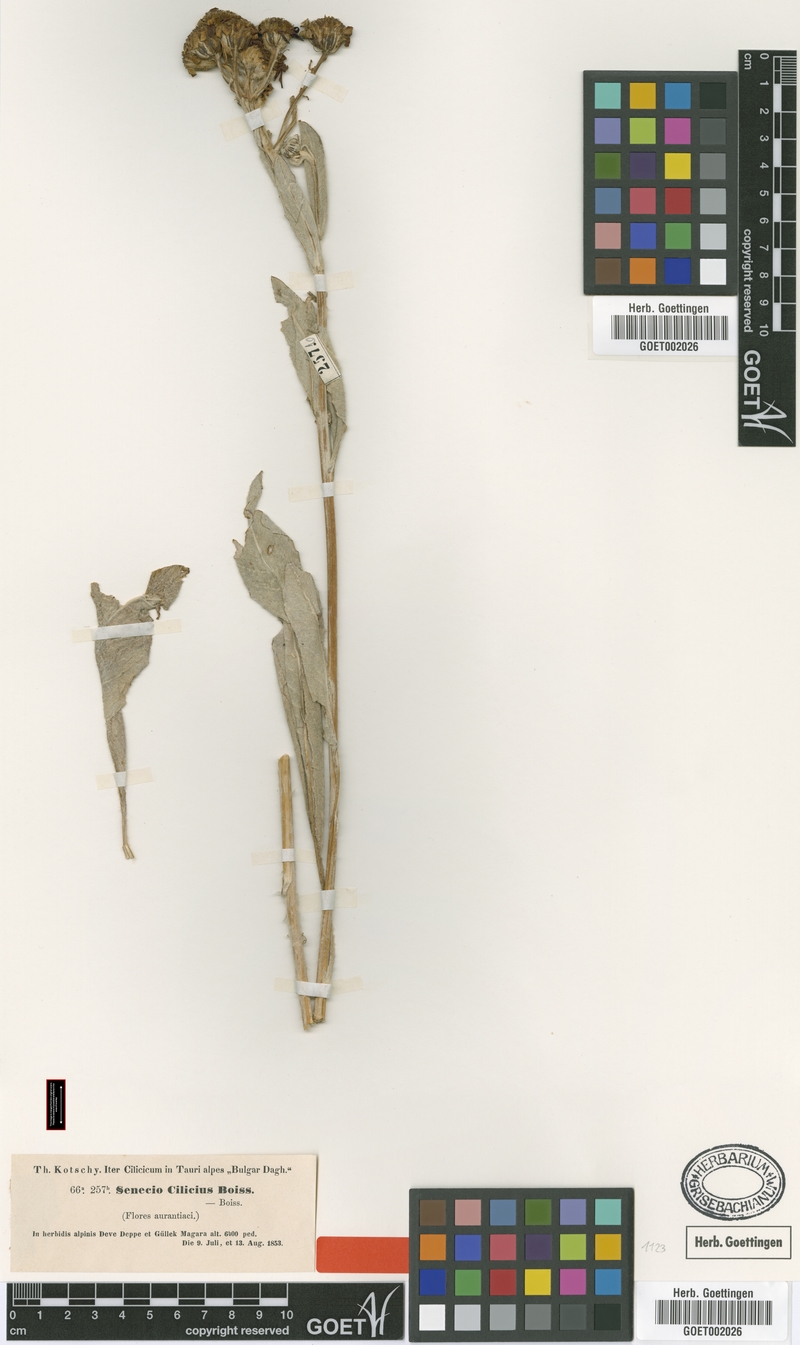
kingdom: Plantae
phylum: Tracheophyta
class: Magnoliopsida
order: Asterales
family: Asteraceae
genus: Jacobaea
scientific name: Jacobaea cilicia
